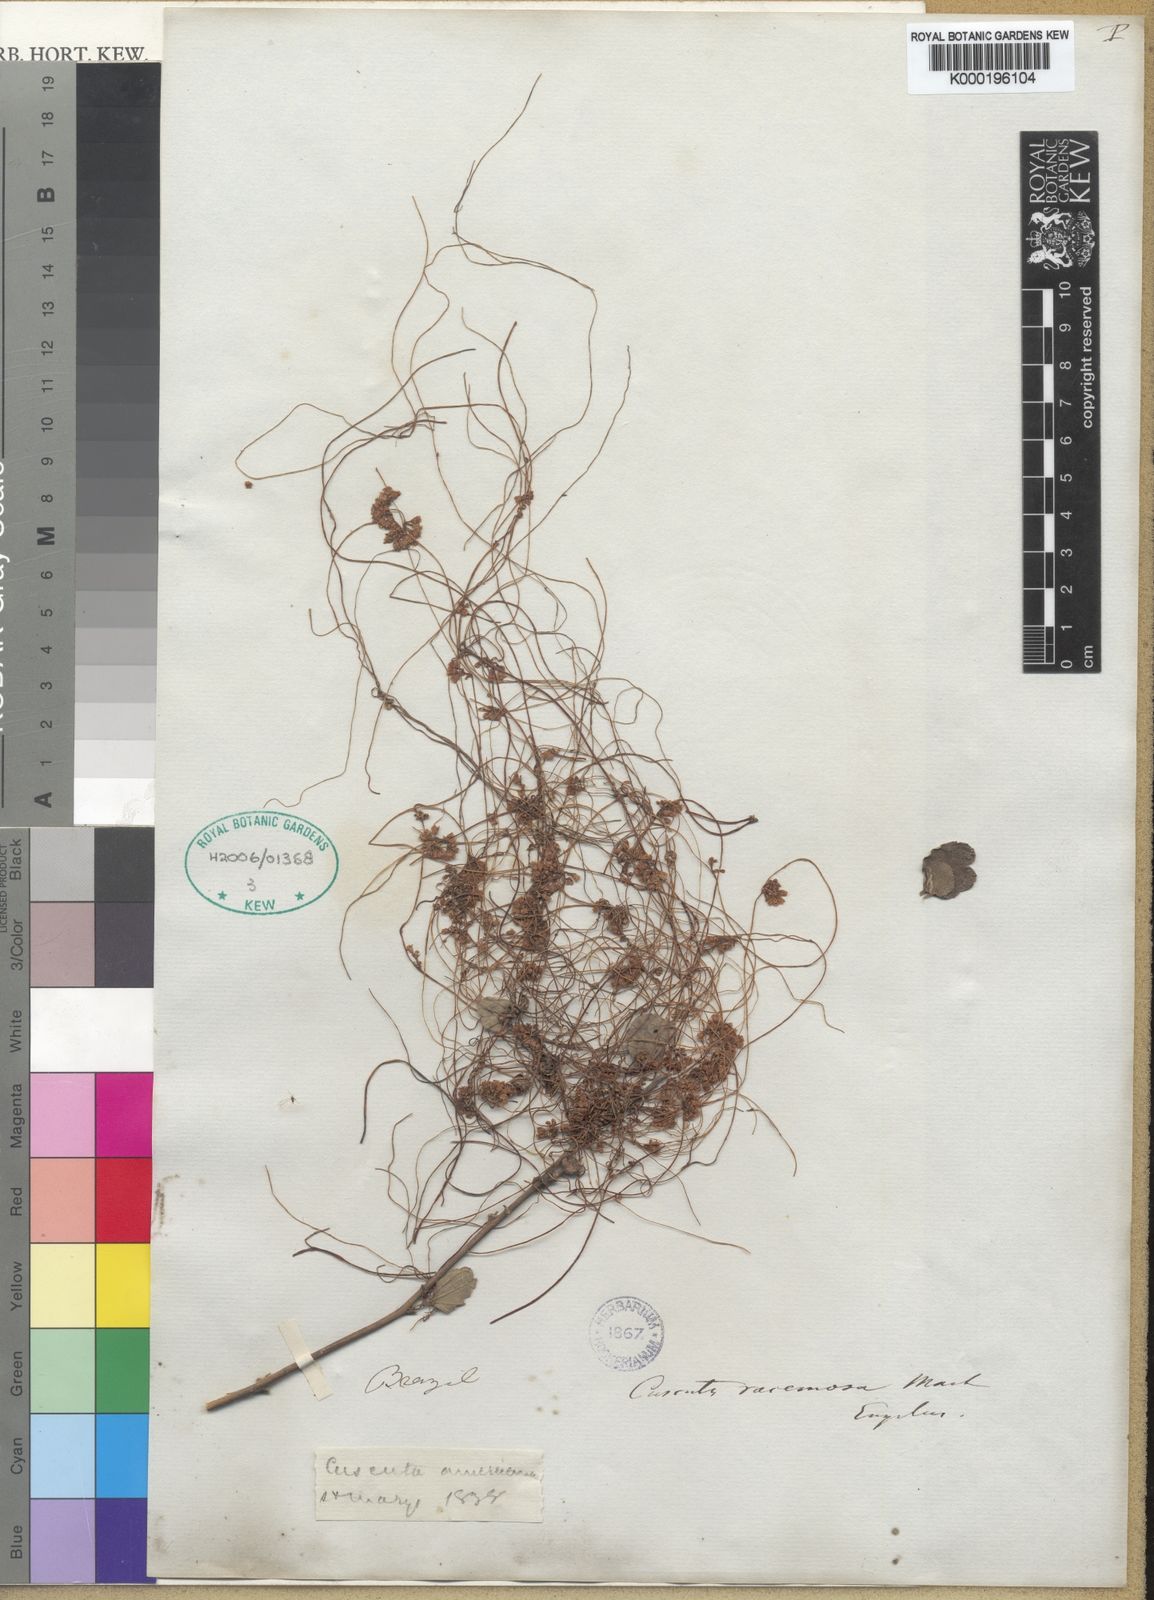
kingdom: Plantae
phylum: Tracheophyta
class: Magnoliopsida
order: Solanales
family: Convolvulaceae
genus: Cuscuta
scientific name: Cuscuta racemosa
